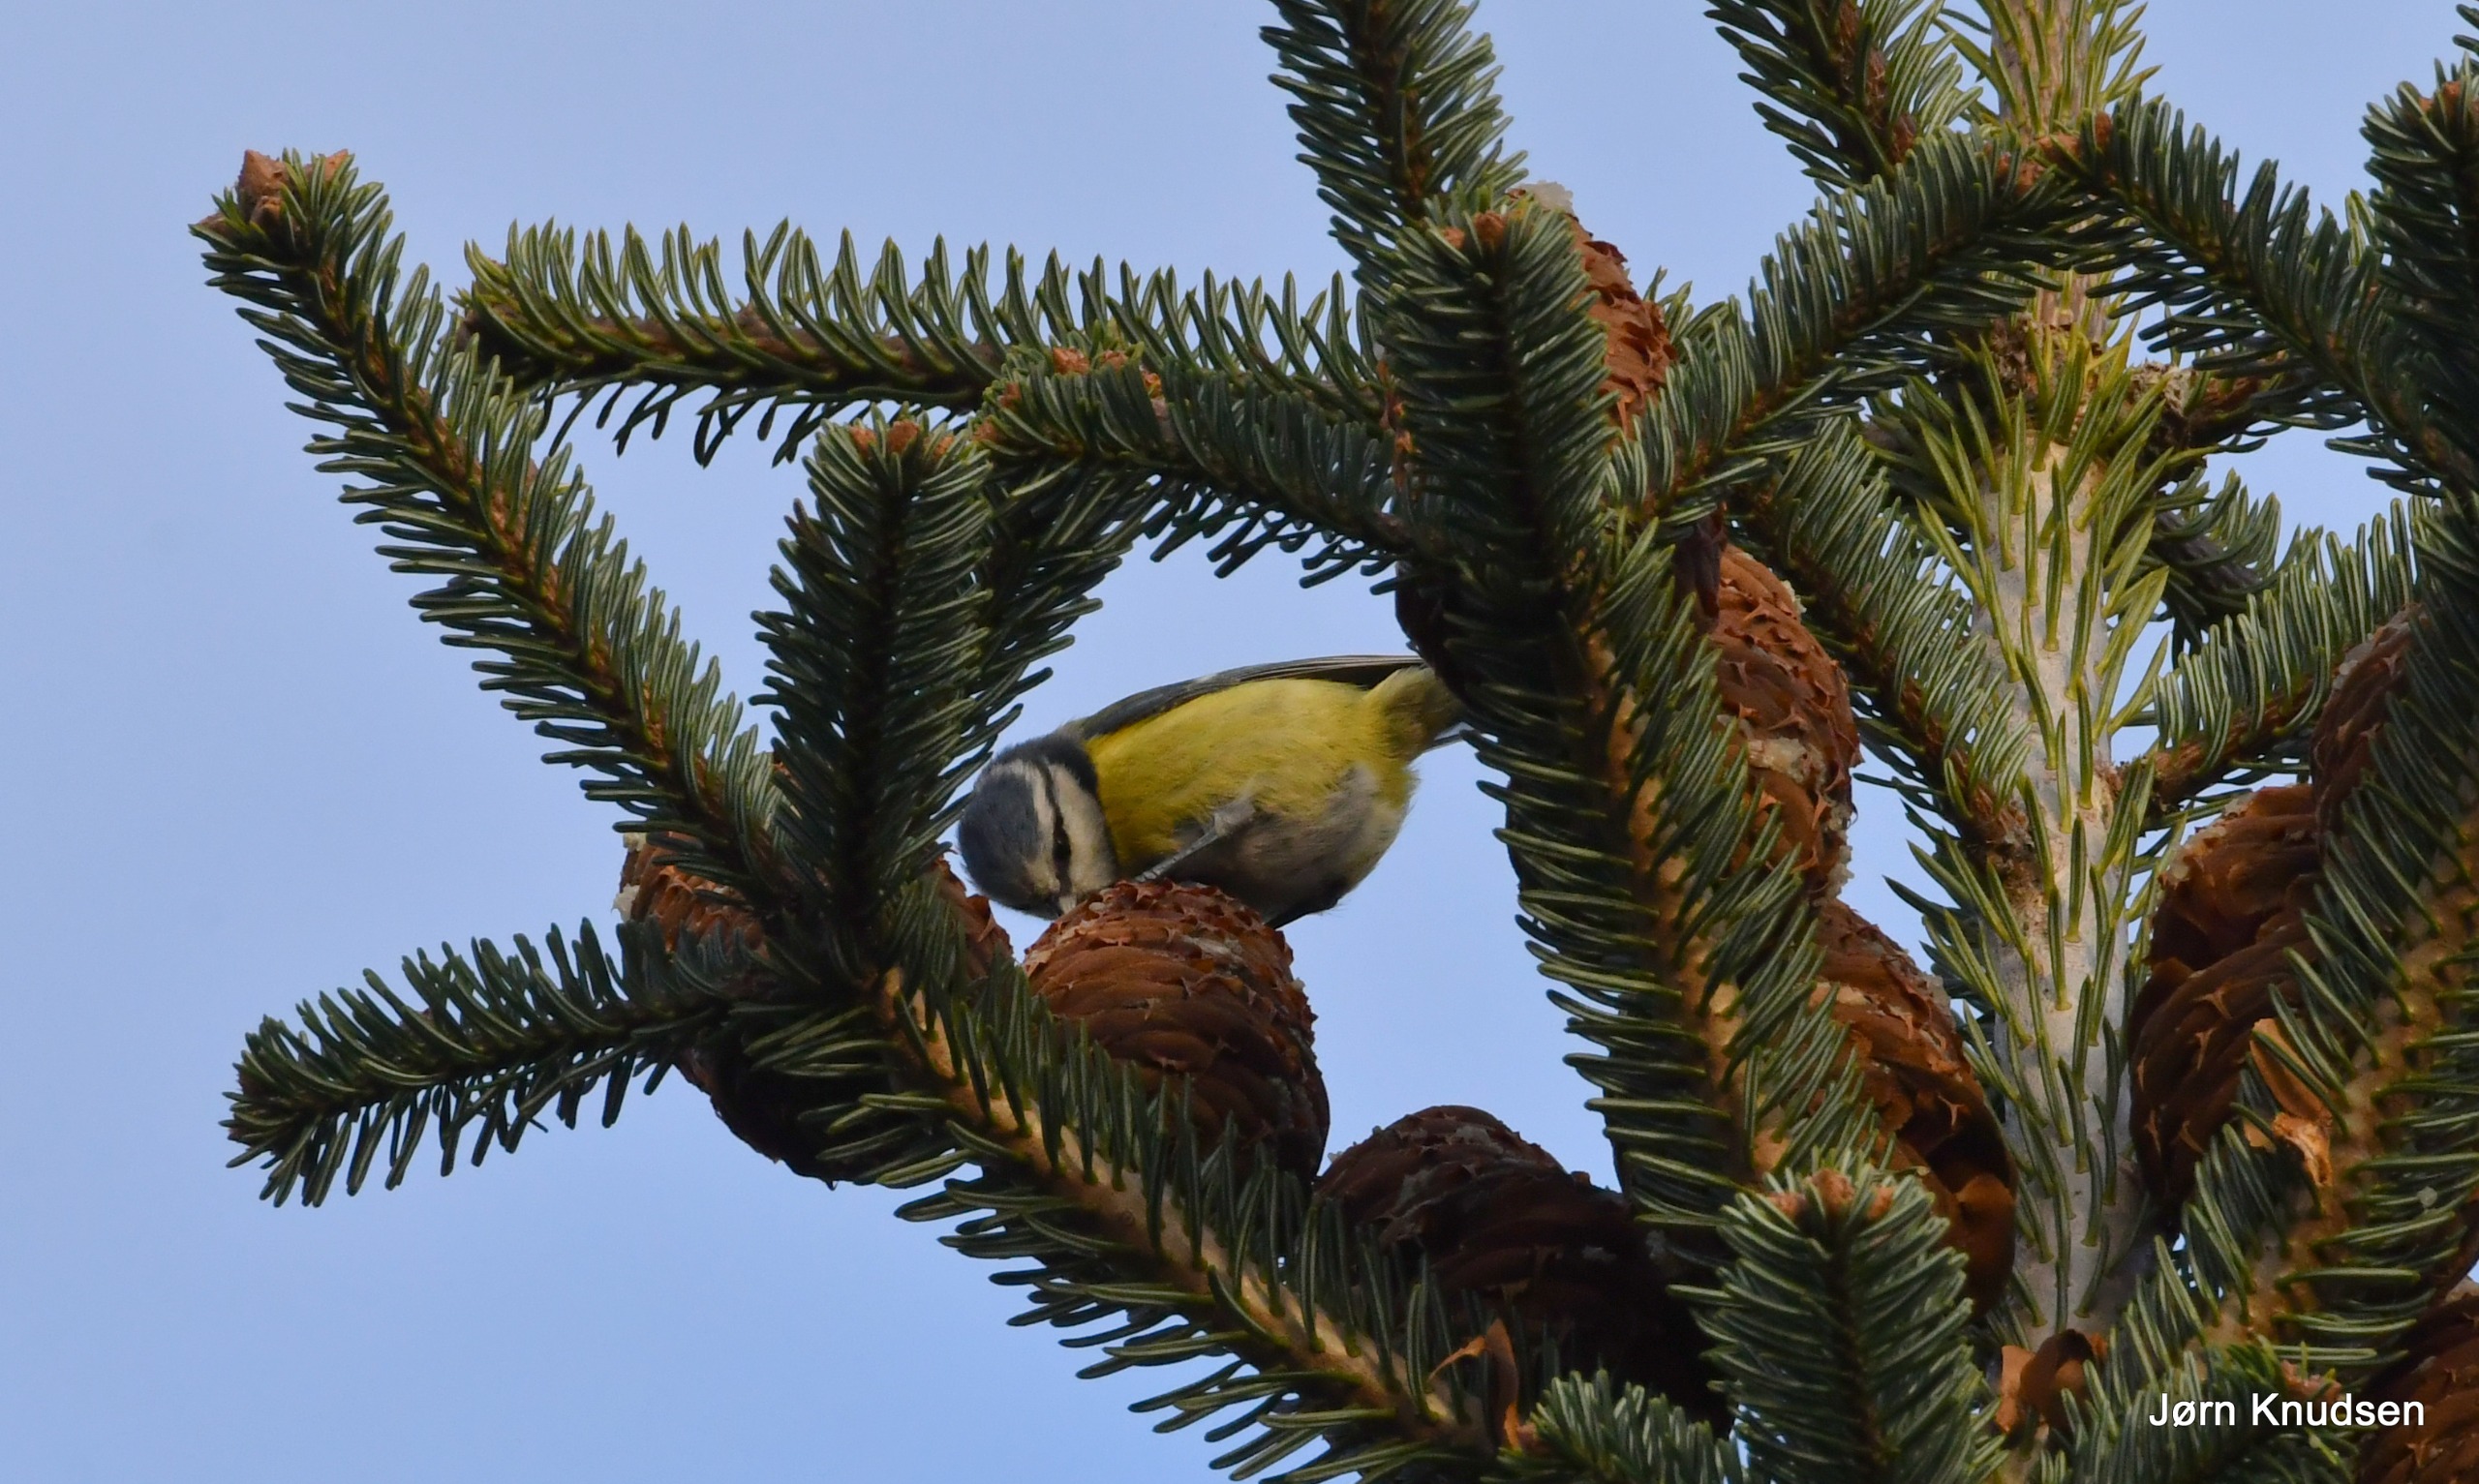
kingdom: Animalia
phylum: Chordata
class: Aves
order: Passeriformes
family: Paridae
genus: Cyanistes
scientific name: Cyanistes caeruleus
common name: Blåmejse
